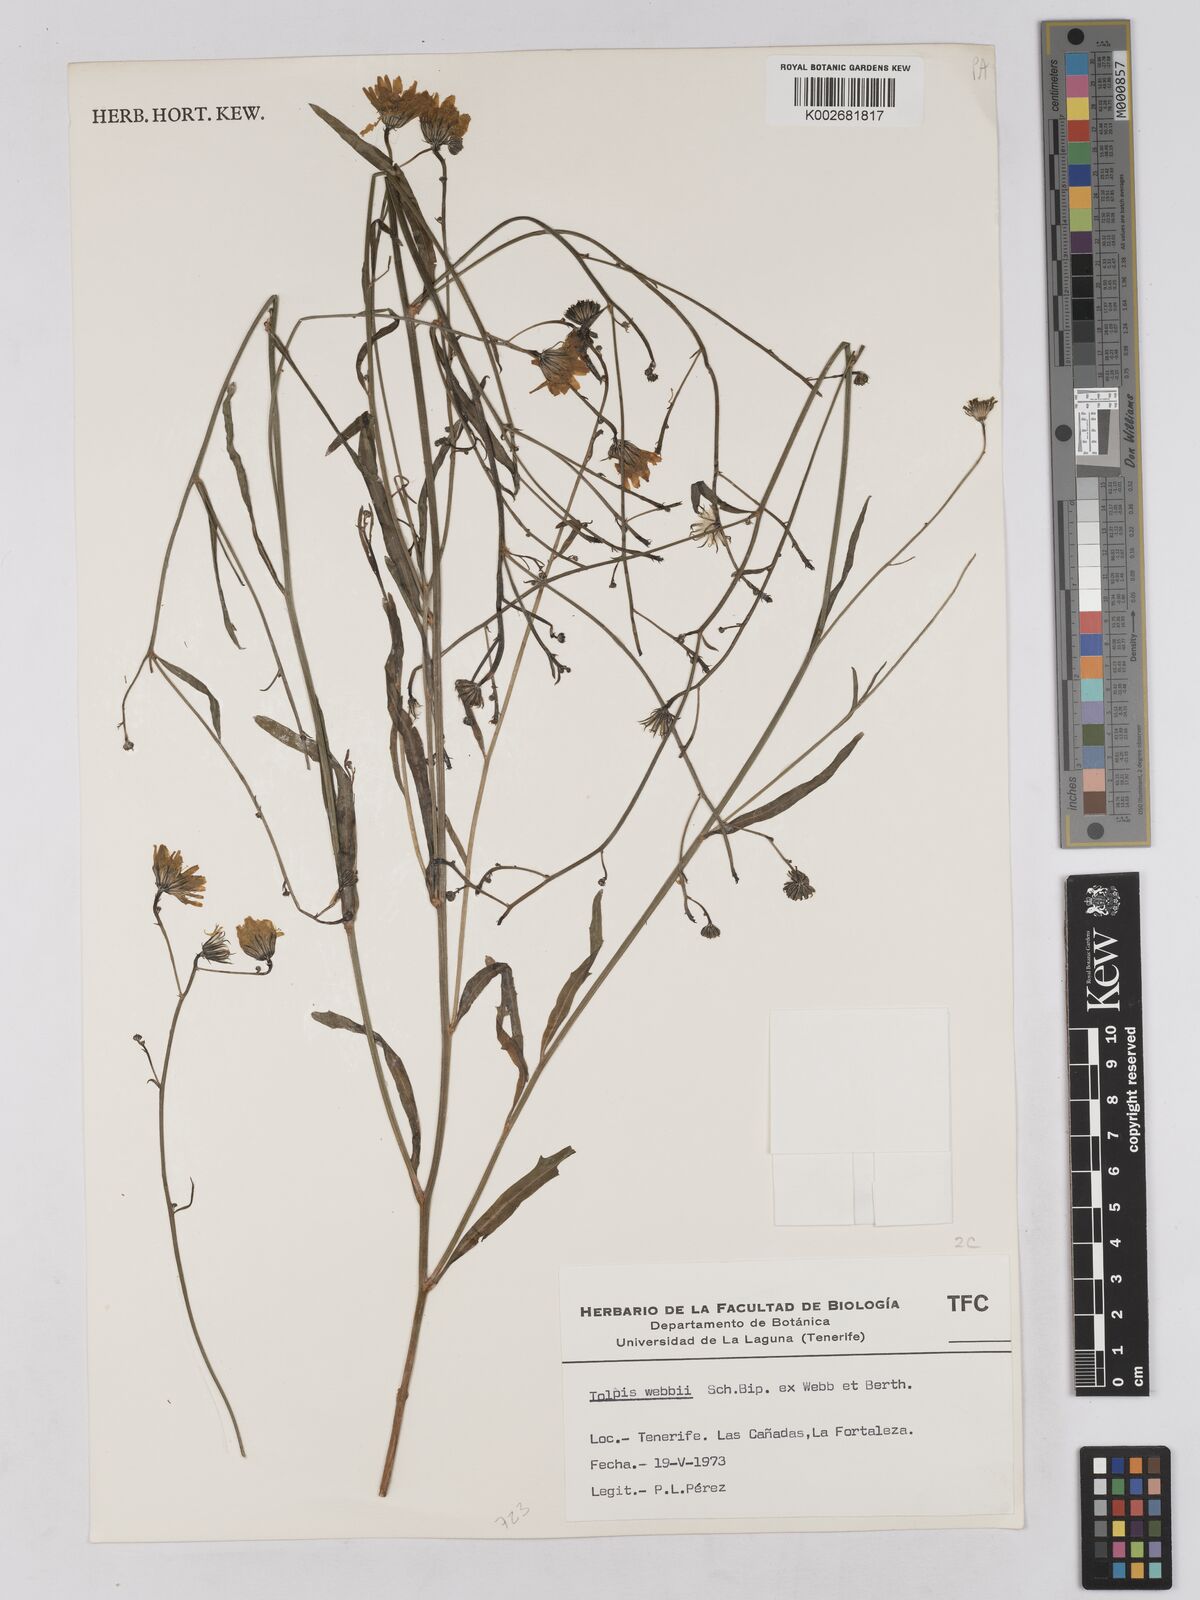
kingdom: Plantae
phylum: Tracheophyta
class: Magnoliopsida
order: Asterales
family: Asteraceae
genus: Tolpis
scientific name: Tolpis webbii
